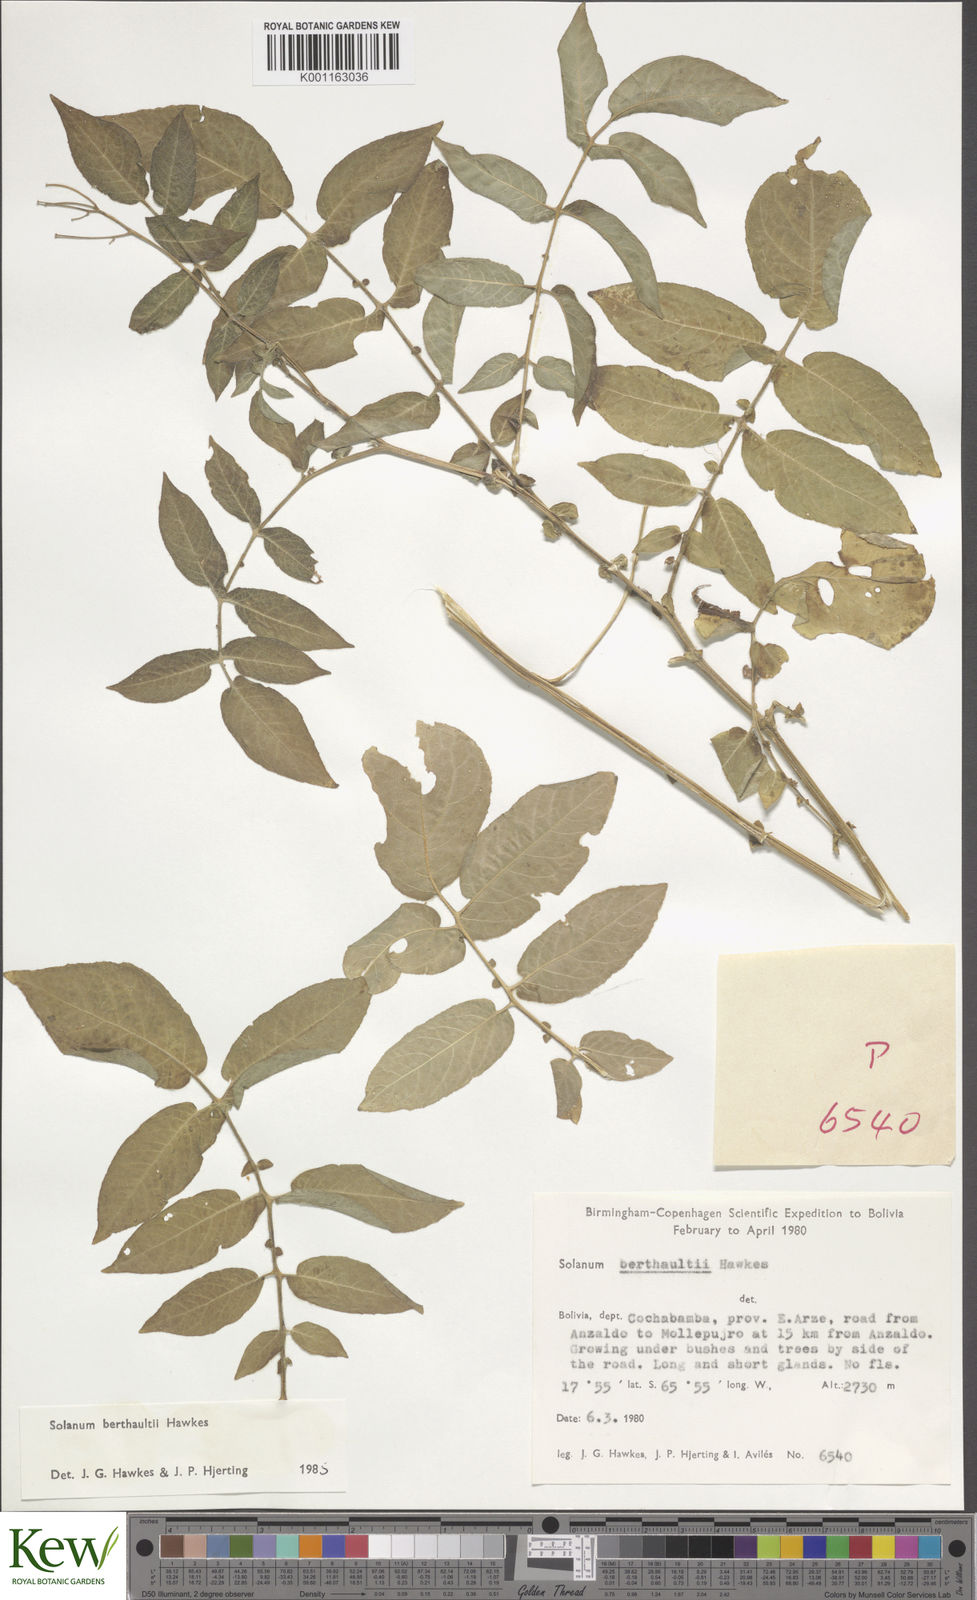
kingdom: Plantae
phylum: Tracheophyta
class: Magnoliopsida
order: Solanales
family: Solanaceae
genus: Solanum
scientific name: Solanum berthaultii
